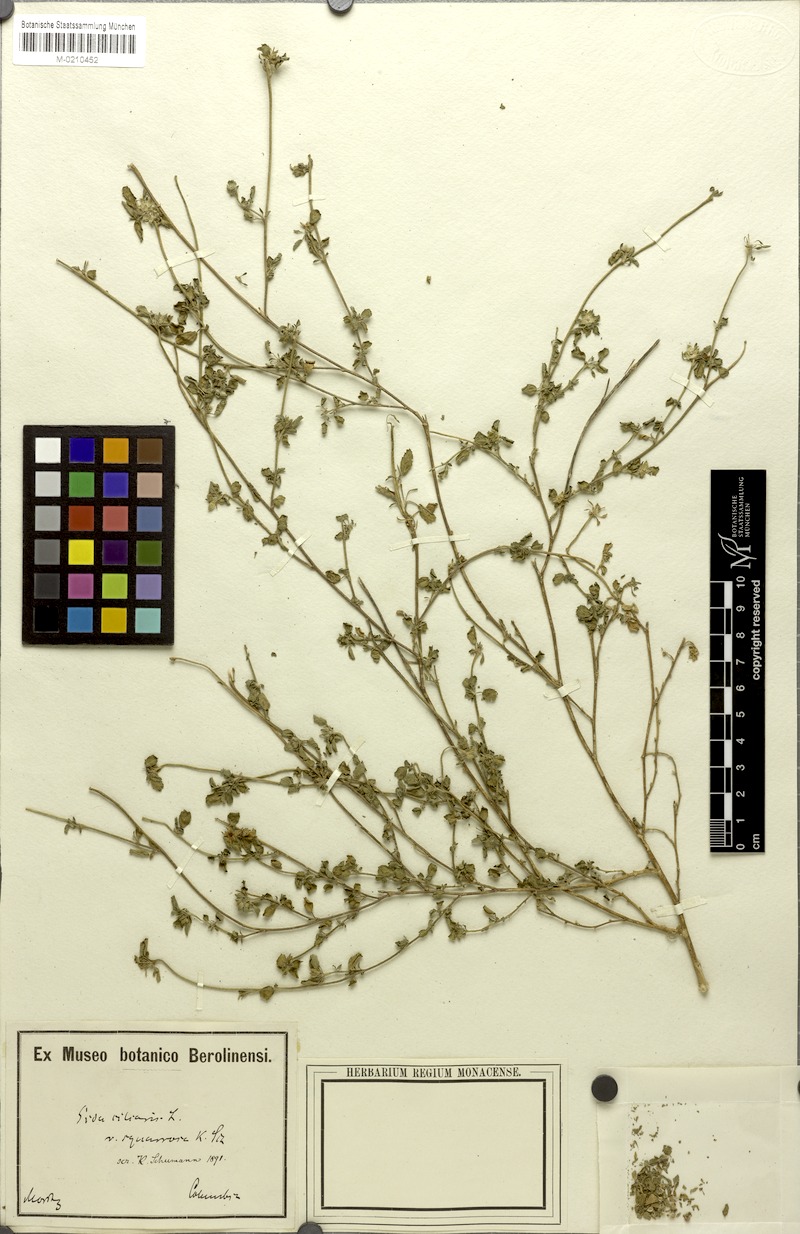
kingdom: Plantae
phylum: Tracheophyta
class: Magnoliopsida
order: Malvales
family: Malvaceae
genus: Sida
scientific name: Sida ciliaris
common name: Bracted fanpetals
